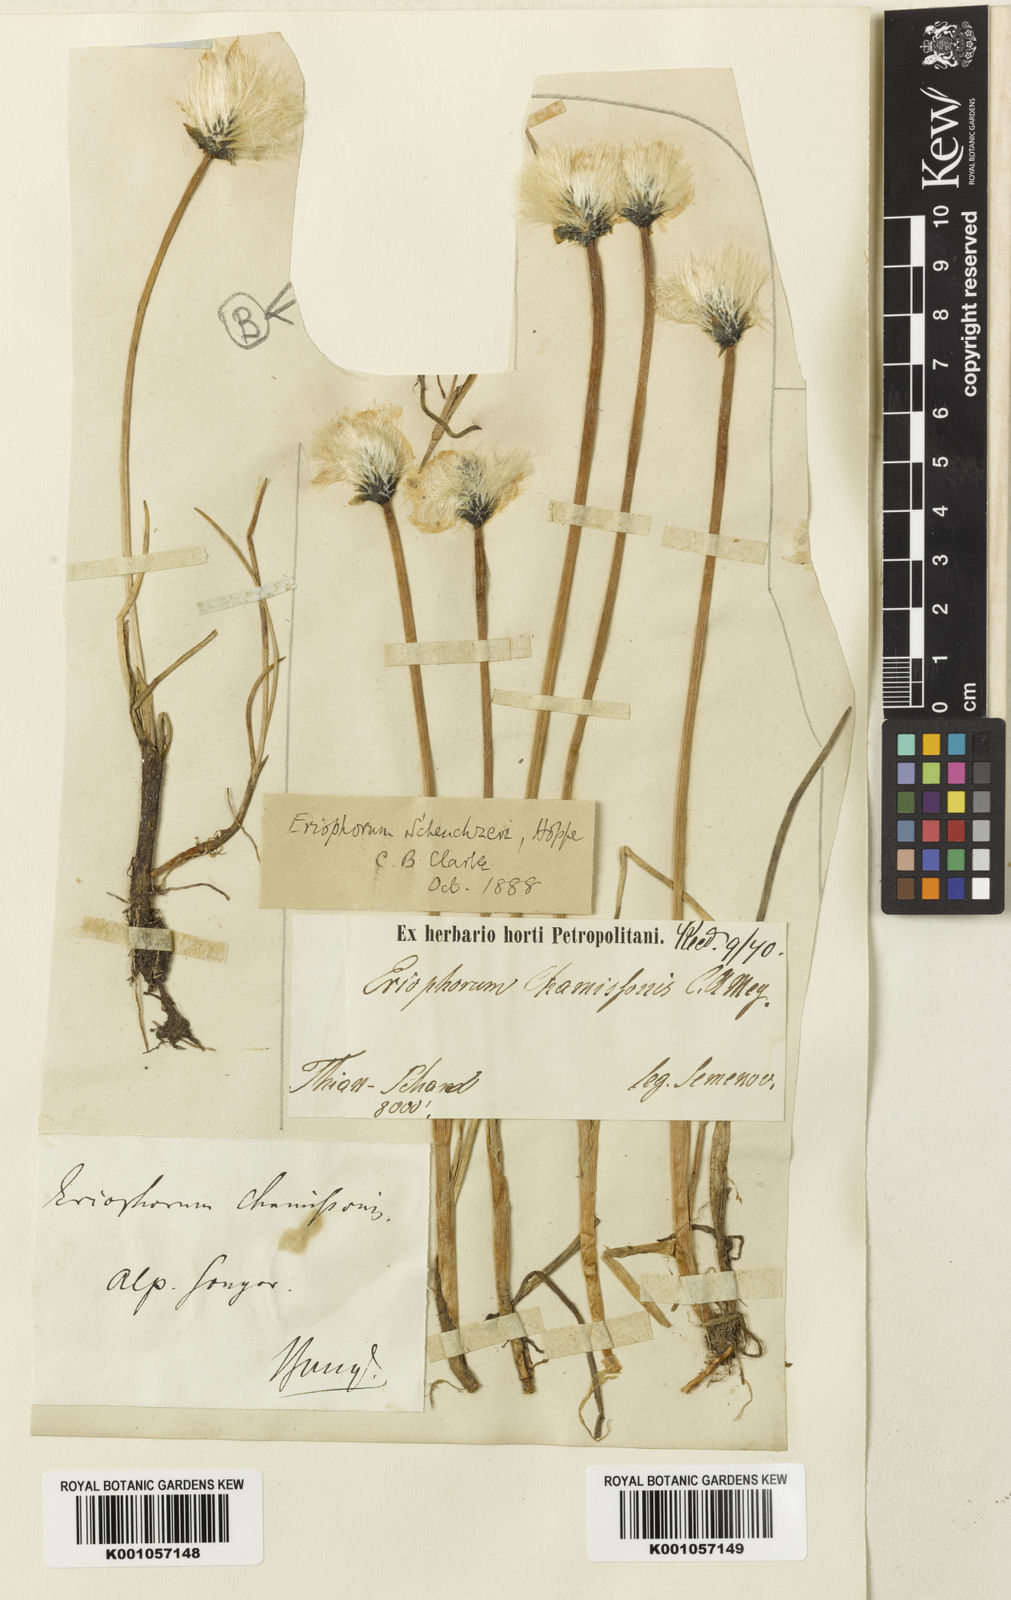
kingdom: Plantae
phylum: Tracheophyta
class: Liliopsida
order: Poales
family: Cyperaceae
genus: Eriophorum
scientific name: Eriophorum chamissonis
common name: Chamisso's cottongrass
